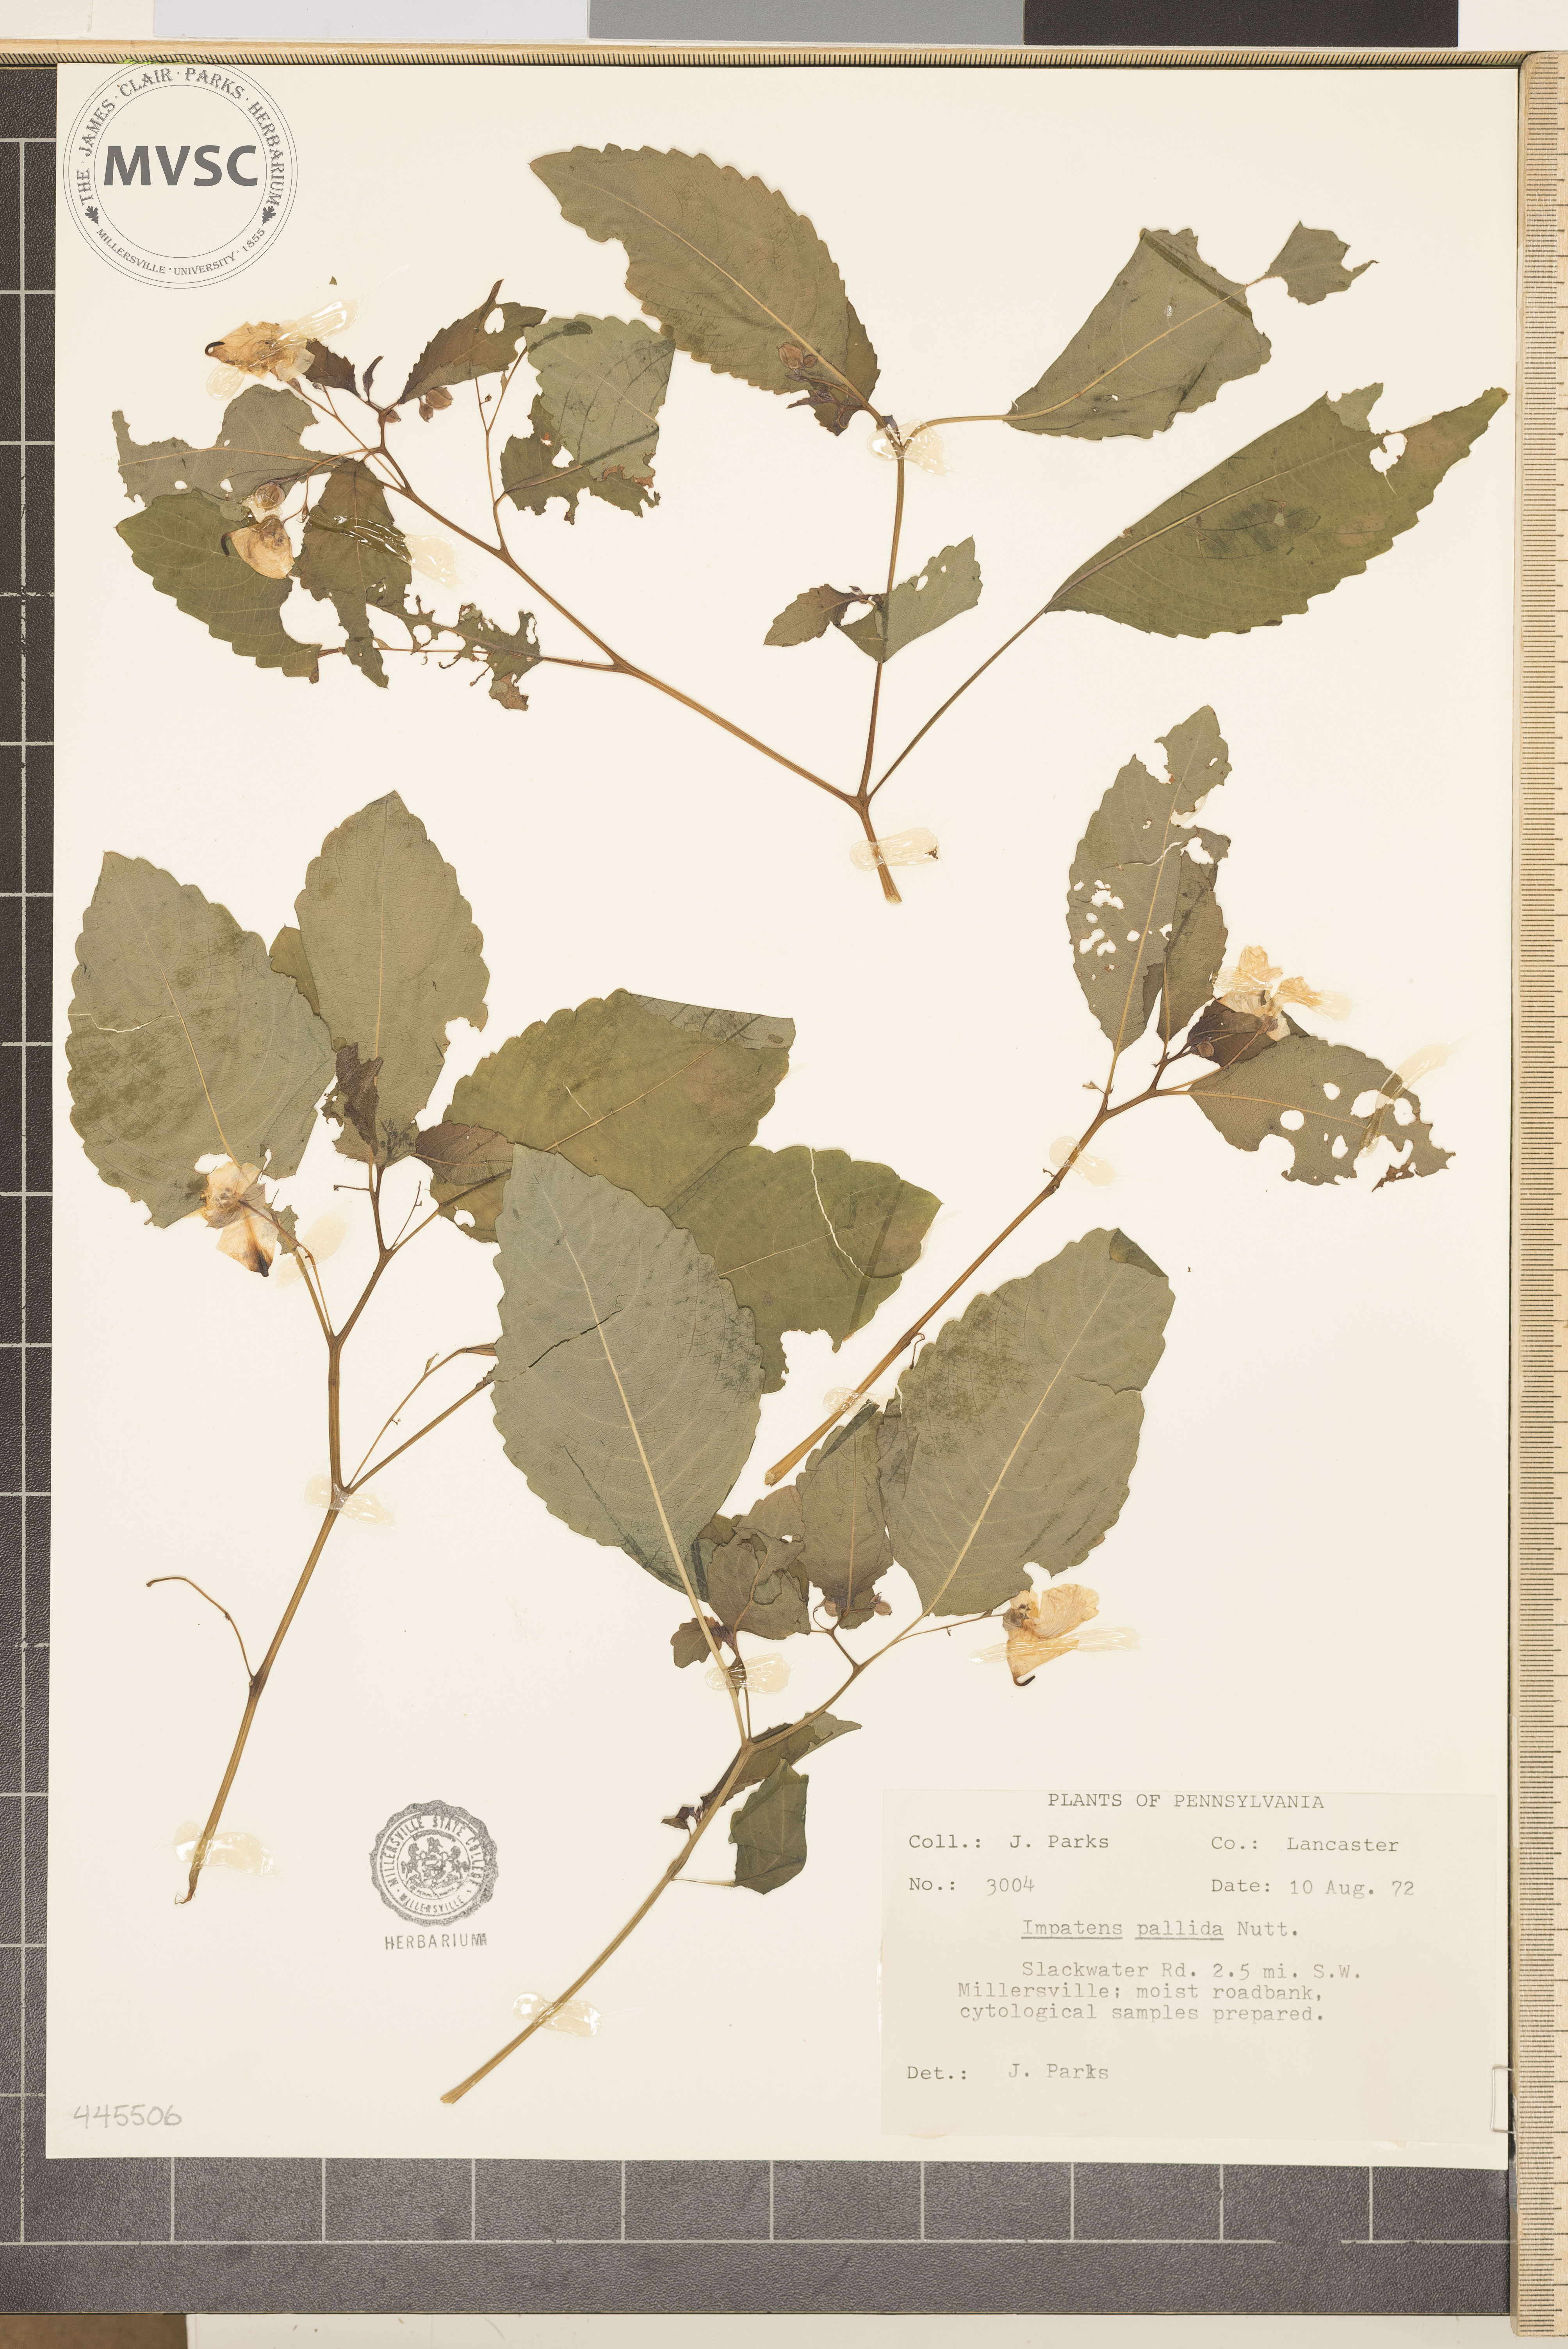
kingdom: Plantae
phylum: Tracheophyta
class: Magnoliopsida
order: Ericales
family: Balsaminaceae
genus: Impatiens
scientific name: Impatiens pallida
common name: Pale snapweed
